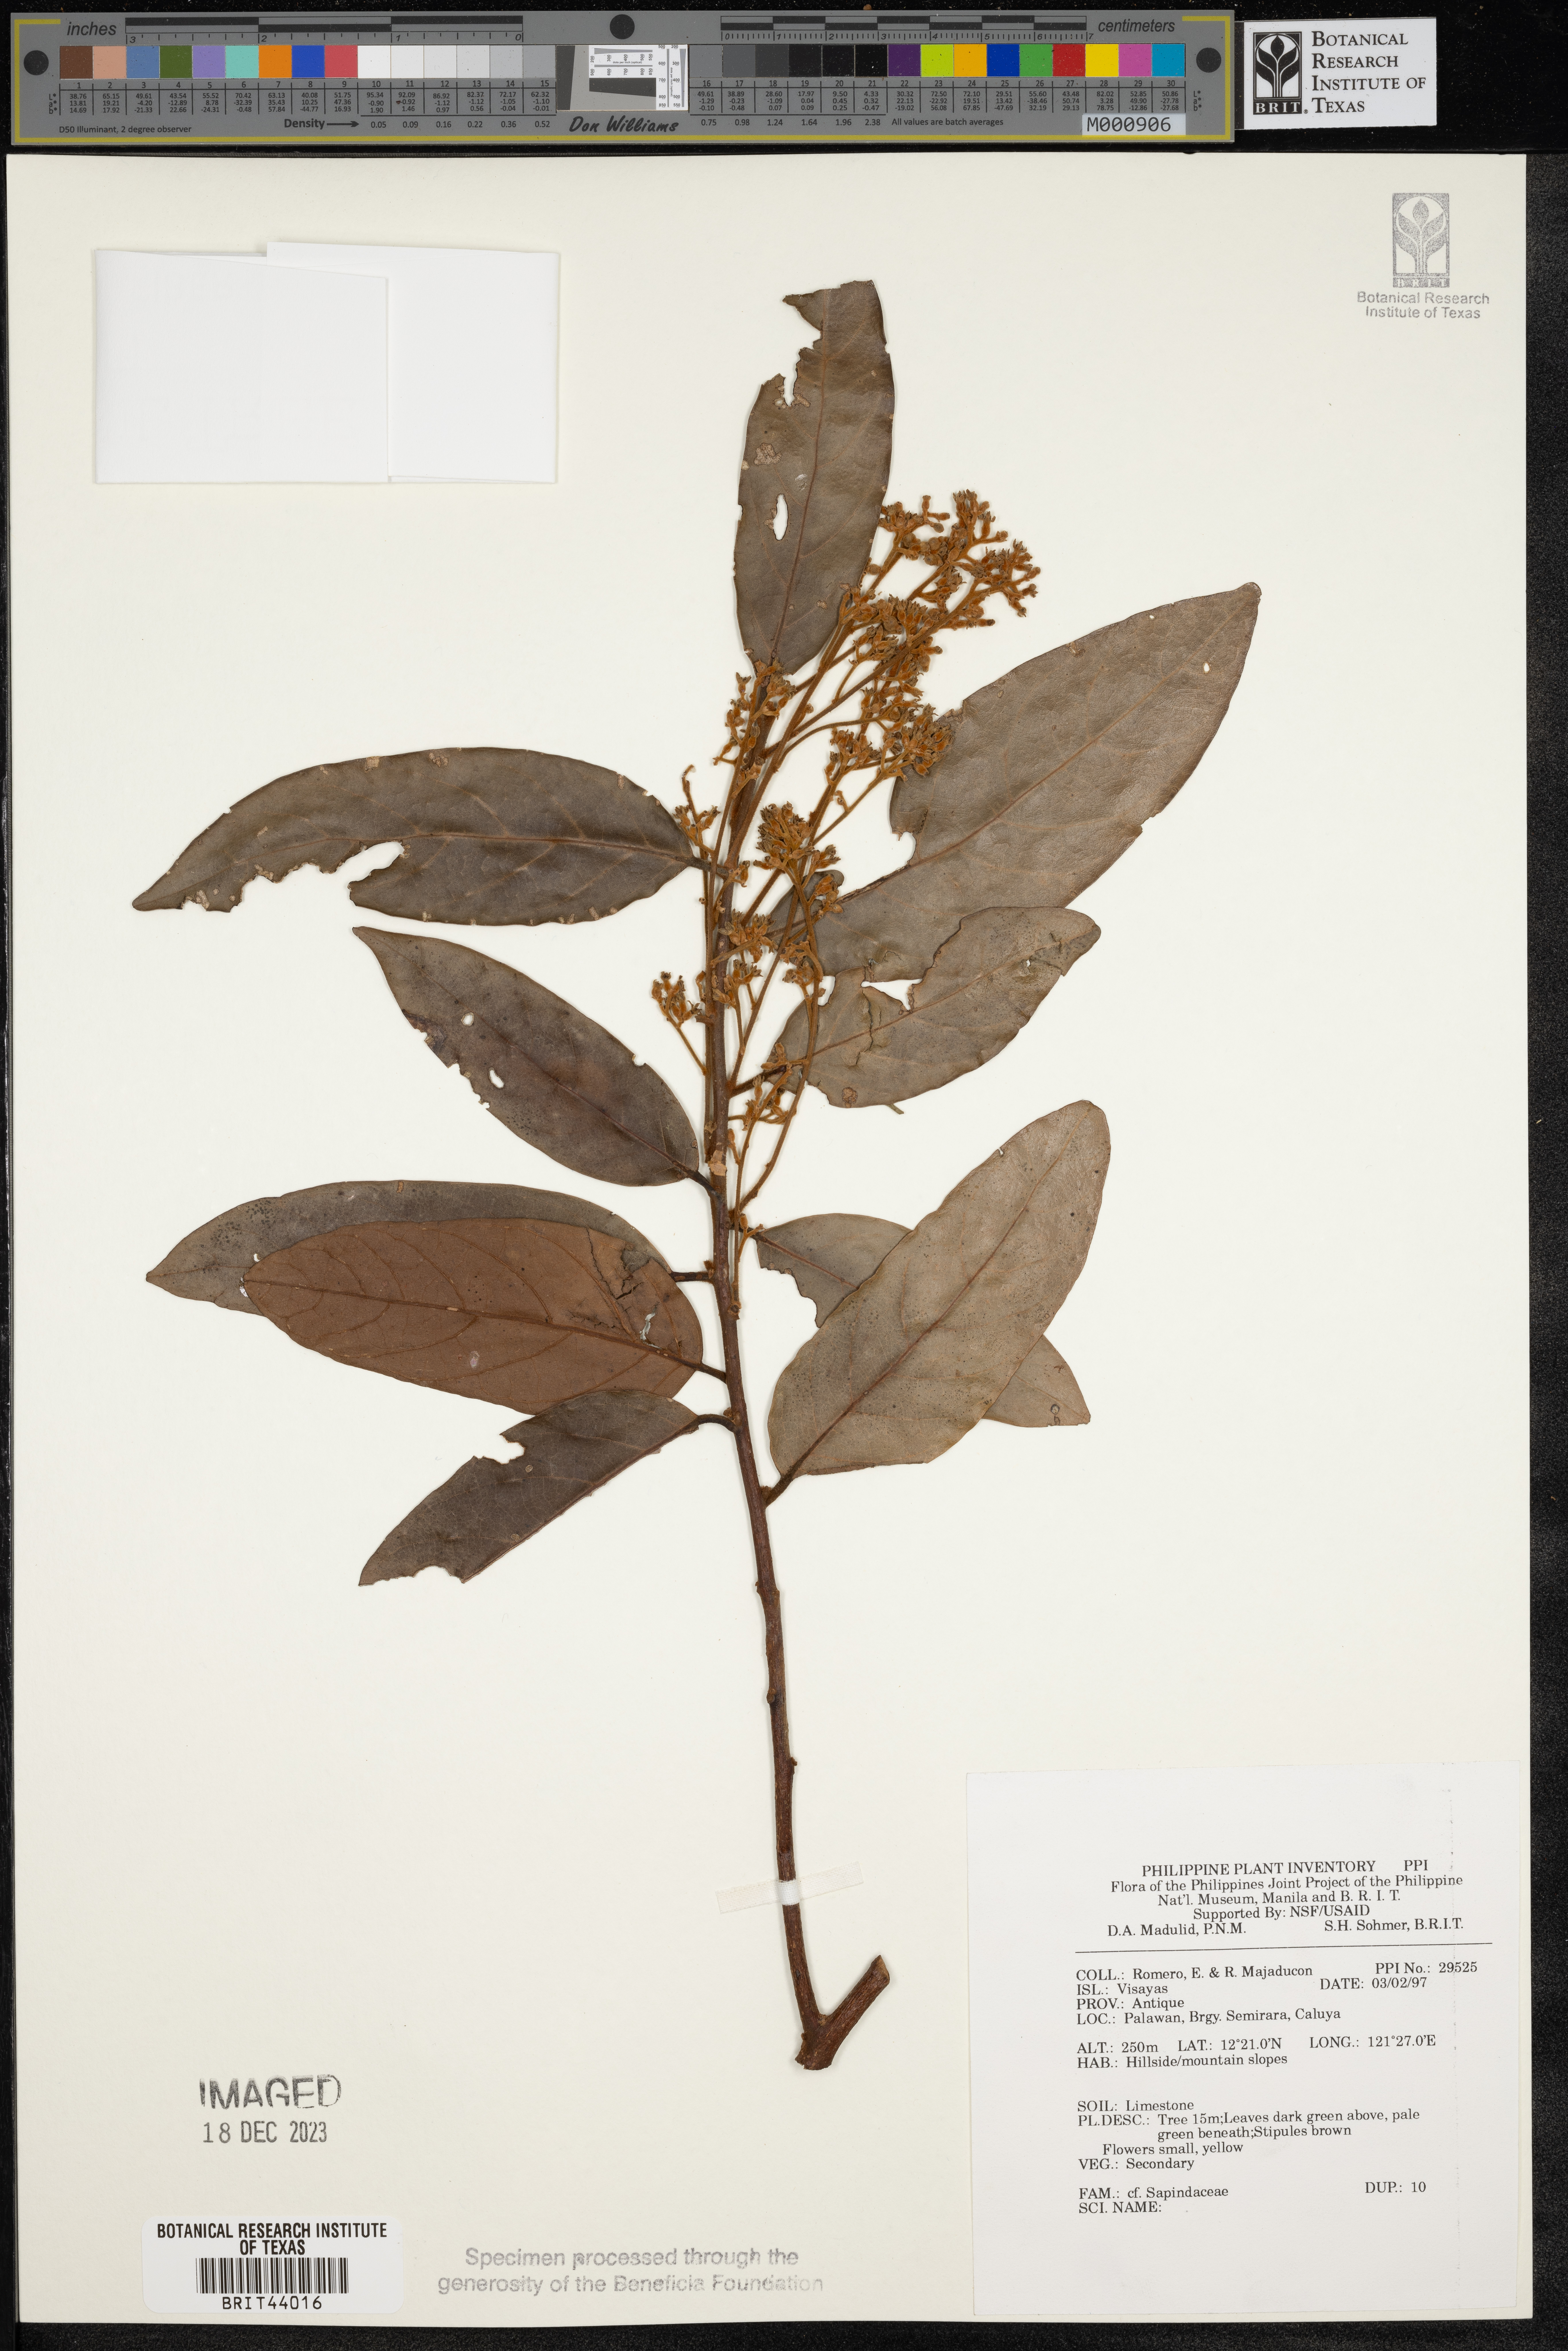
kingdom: Plantae
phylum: Tracheophyta
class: Magnoliopsida
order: Sapindales
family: Sapindaceae
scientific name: Sapindaceae
